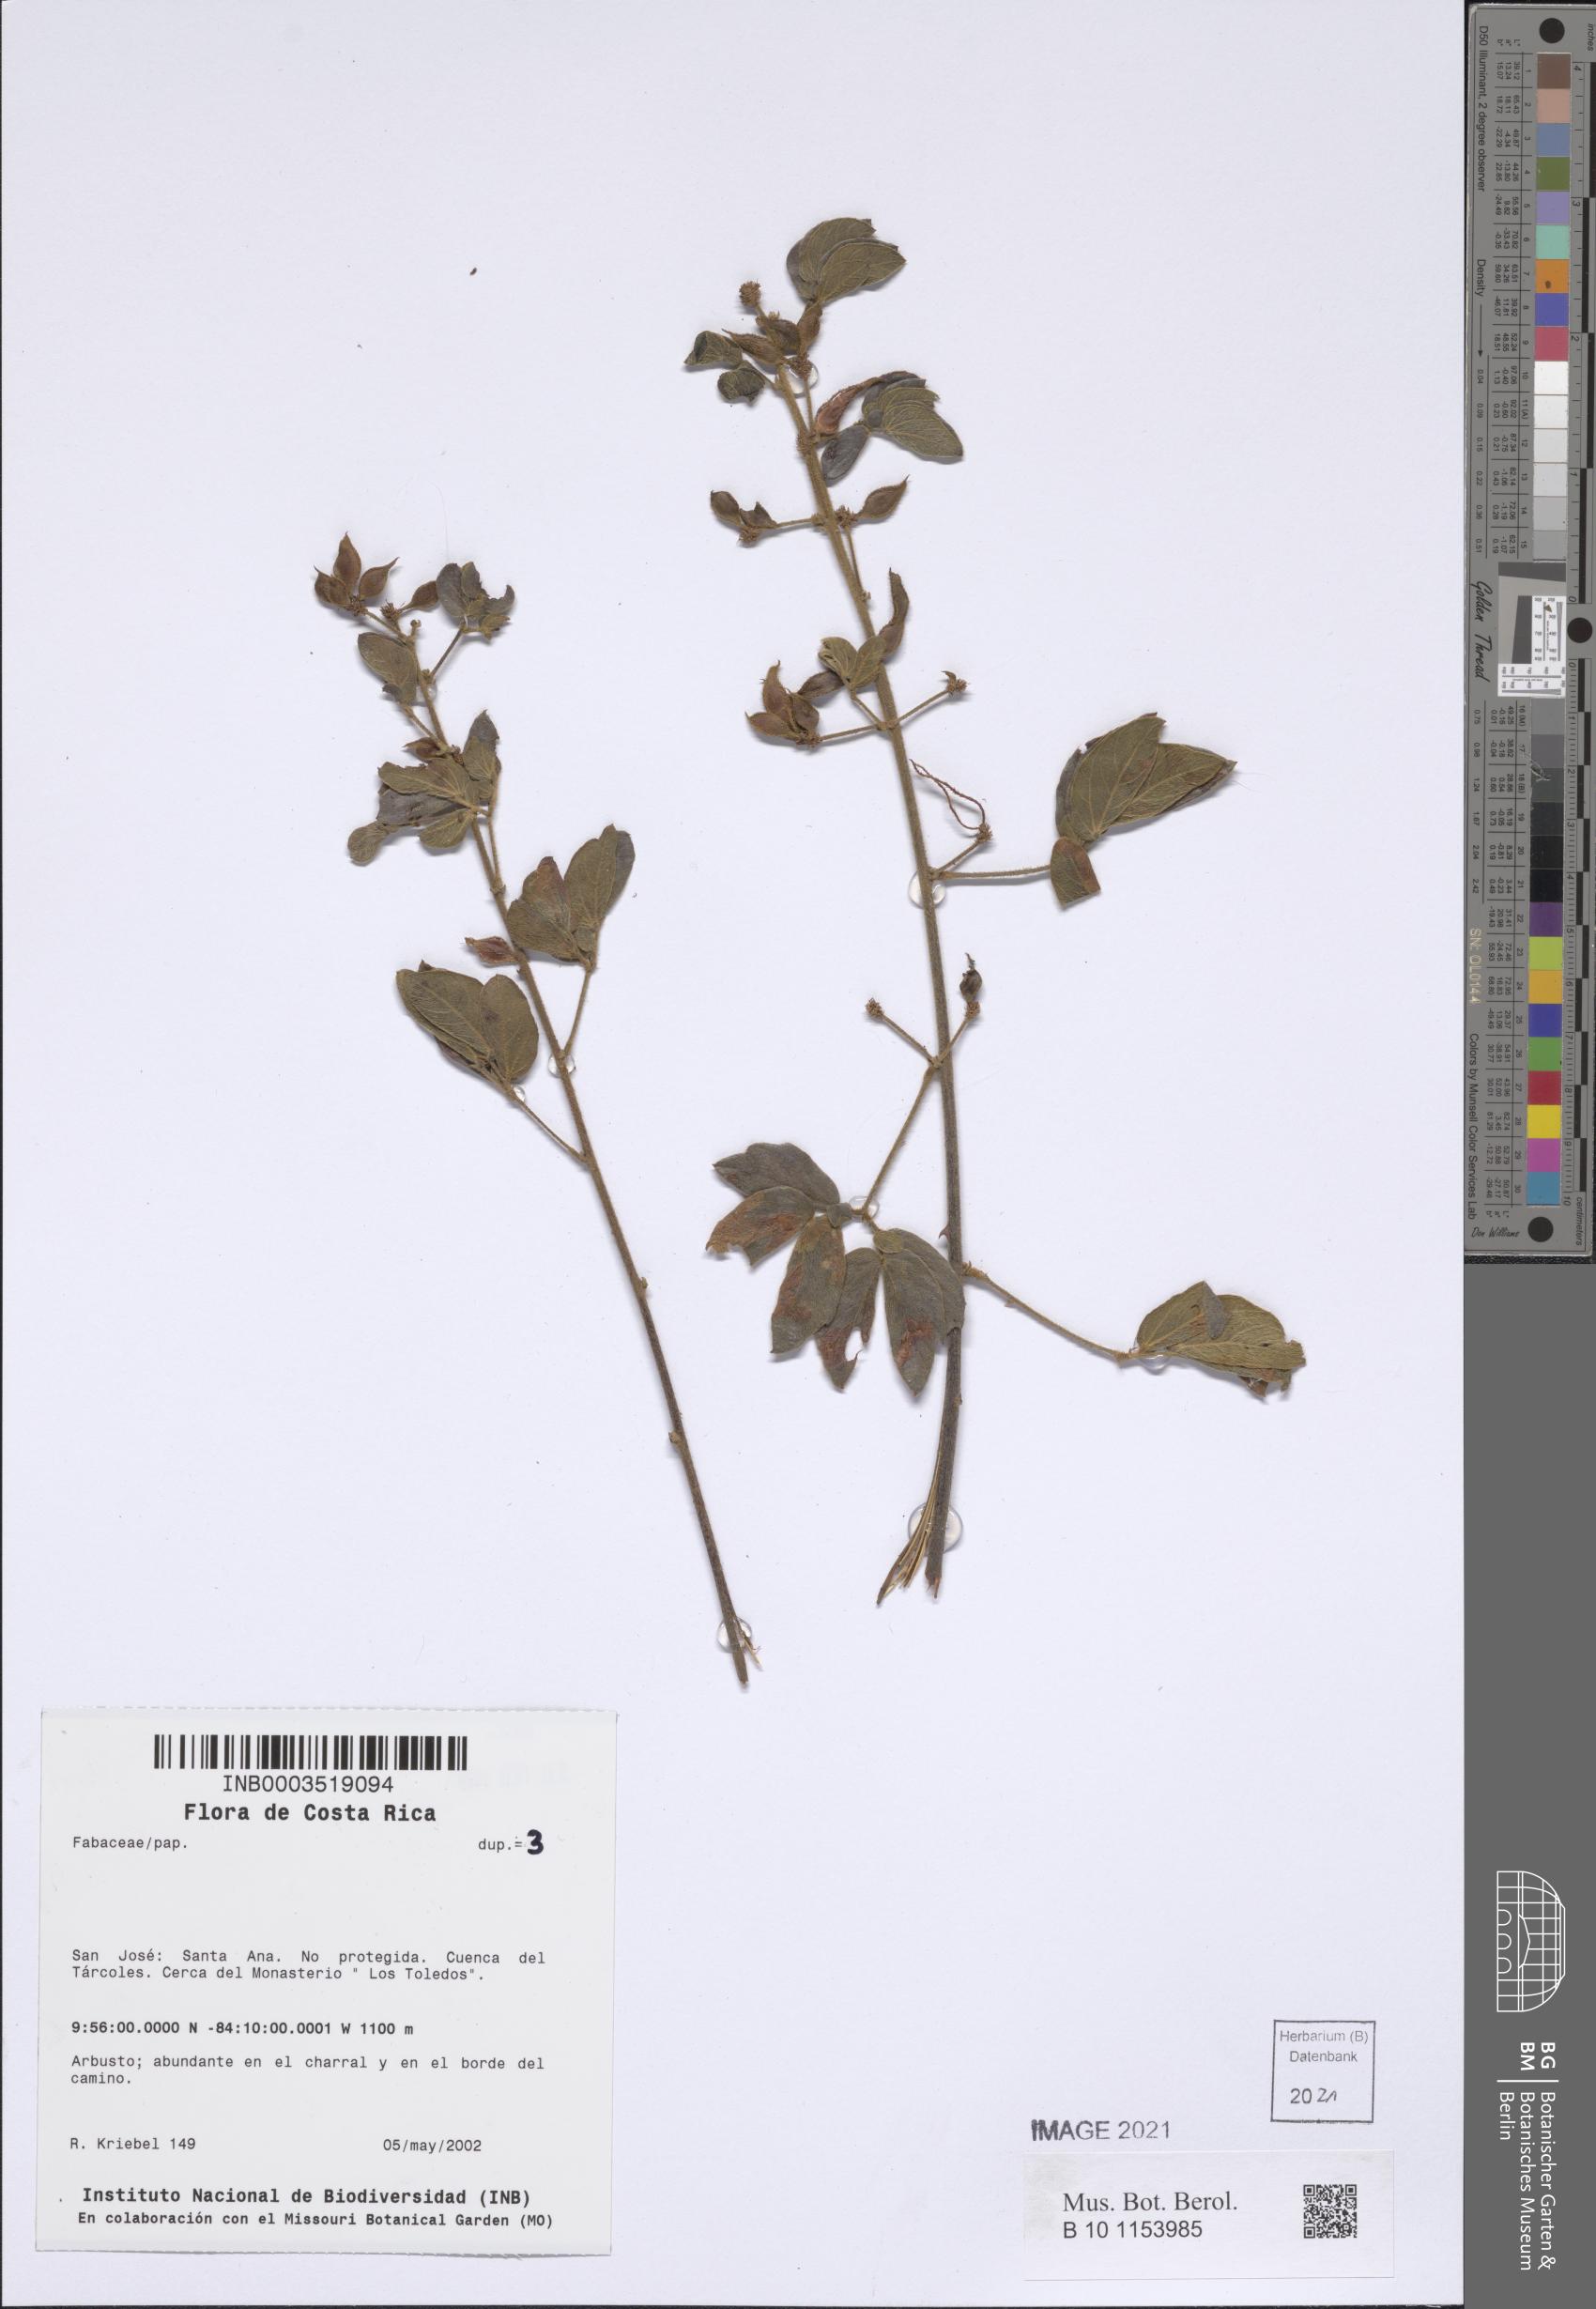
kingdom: Plantae
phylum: Tracheophyta
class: Magnoliopsida
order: Fabales
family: Fabaceae
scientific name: Fabaceae
